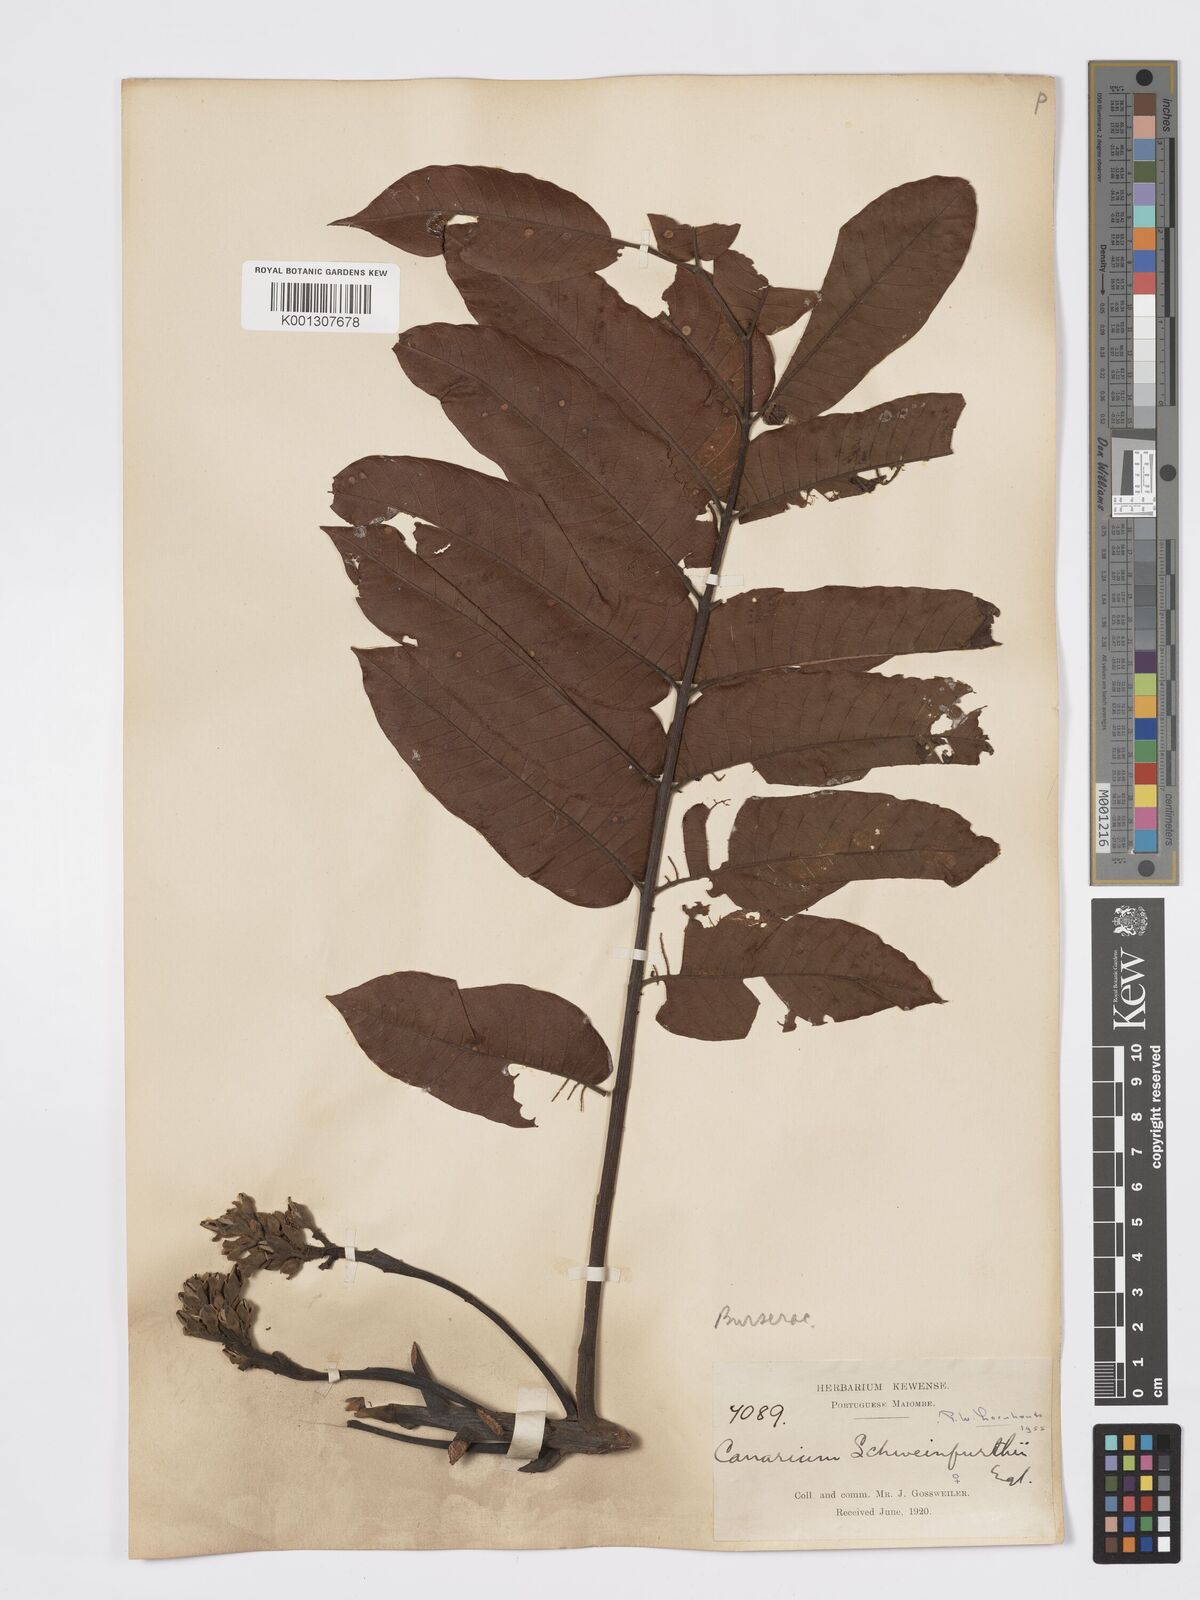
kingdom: Plantae
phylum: Tracheophyta
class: Magnoliopsida
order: Sapindales
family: Burseraceae
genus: Canarium
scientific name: Canarium schweinfurthii
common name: African elemi
